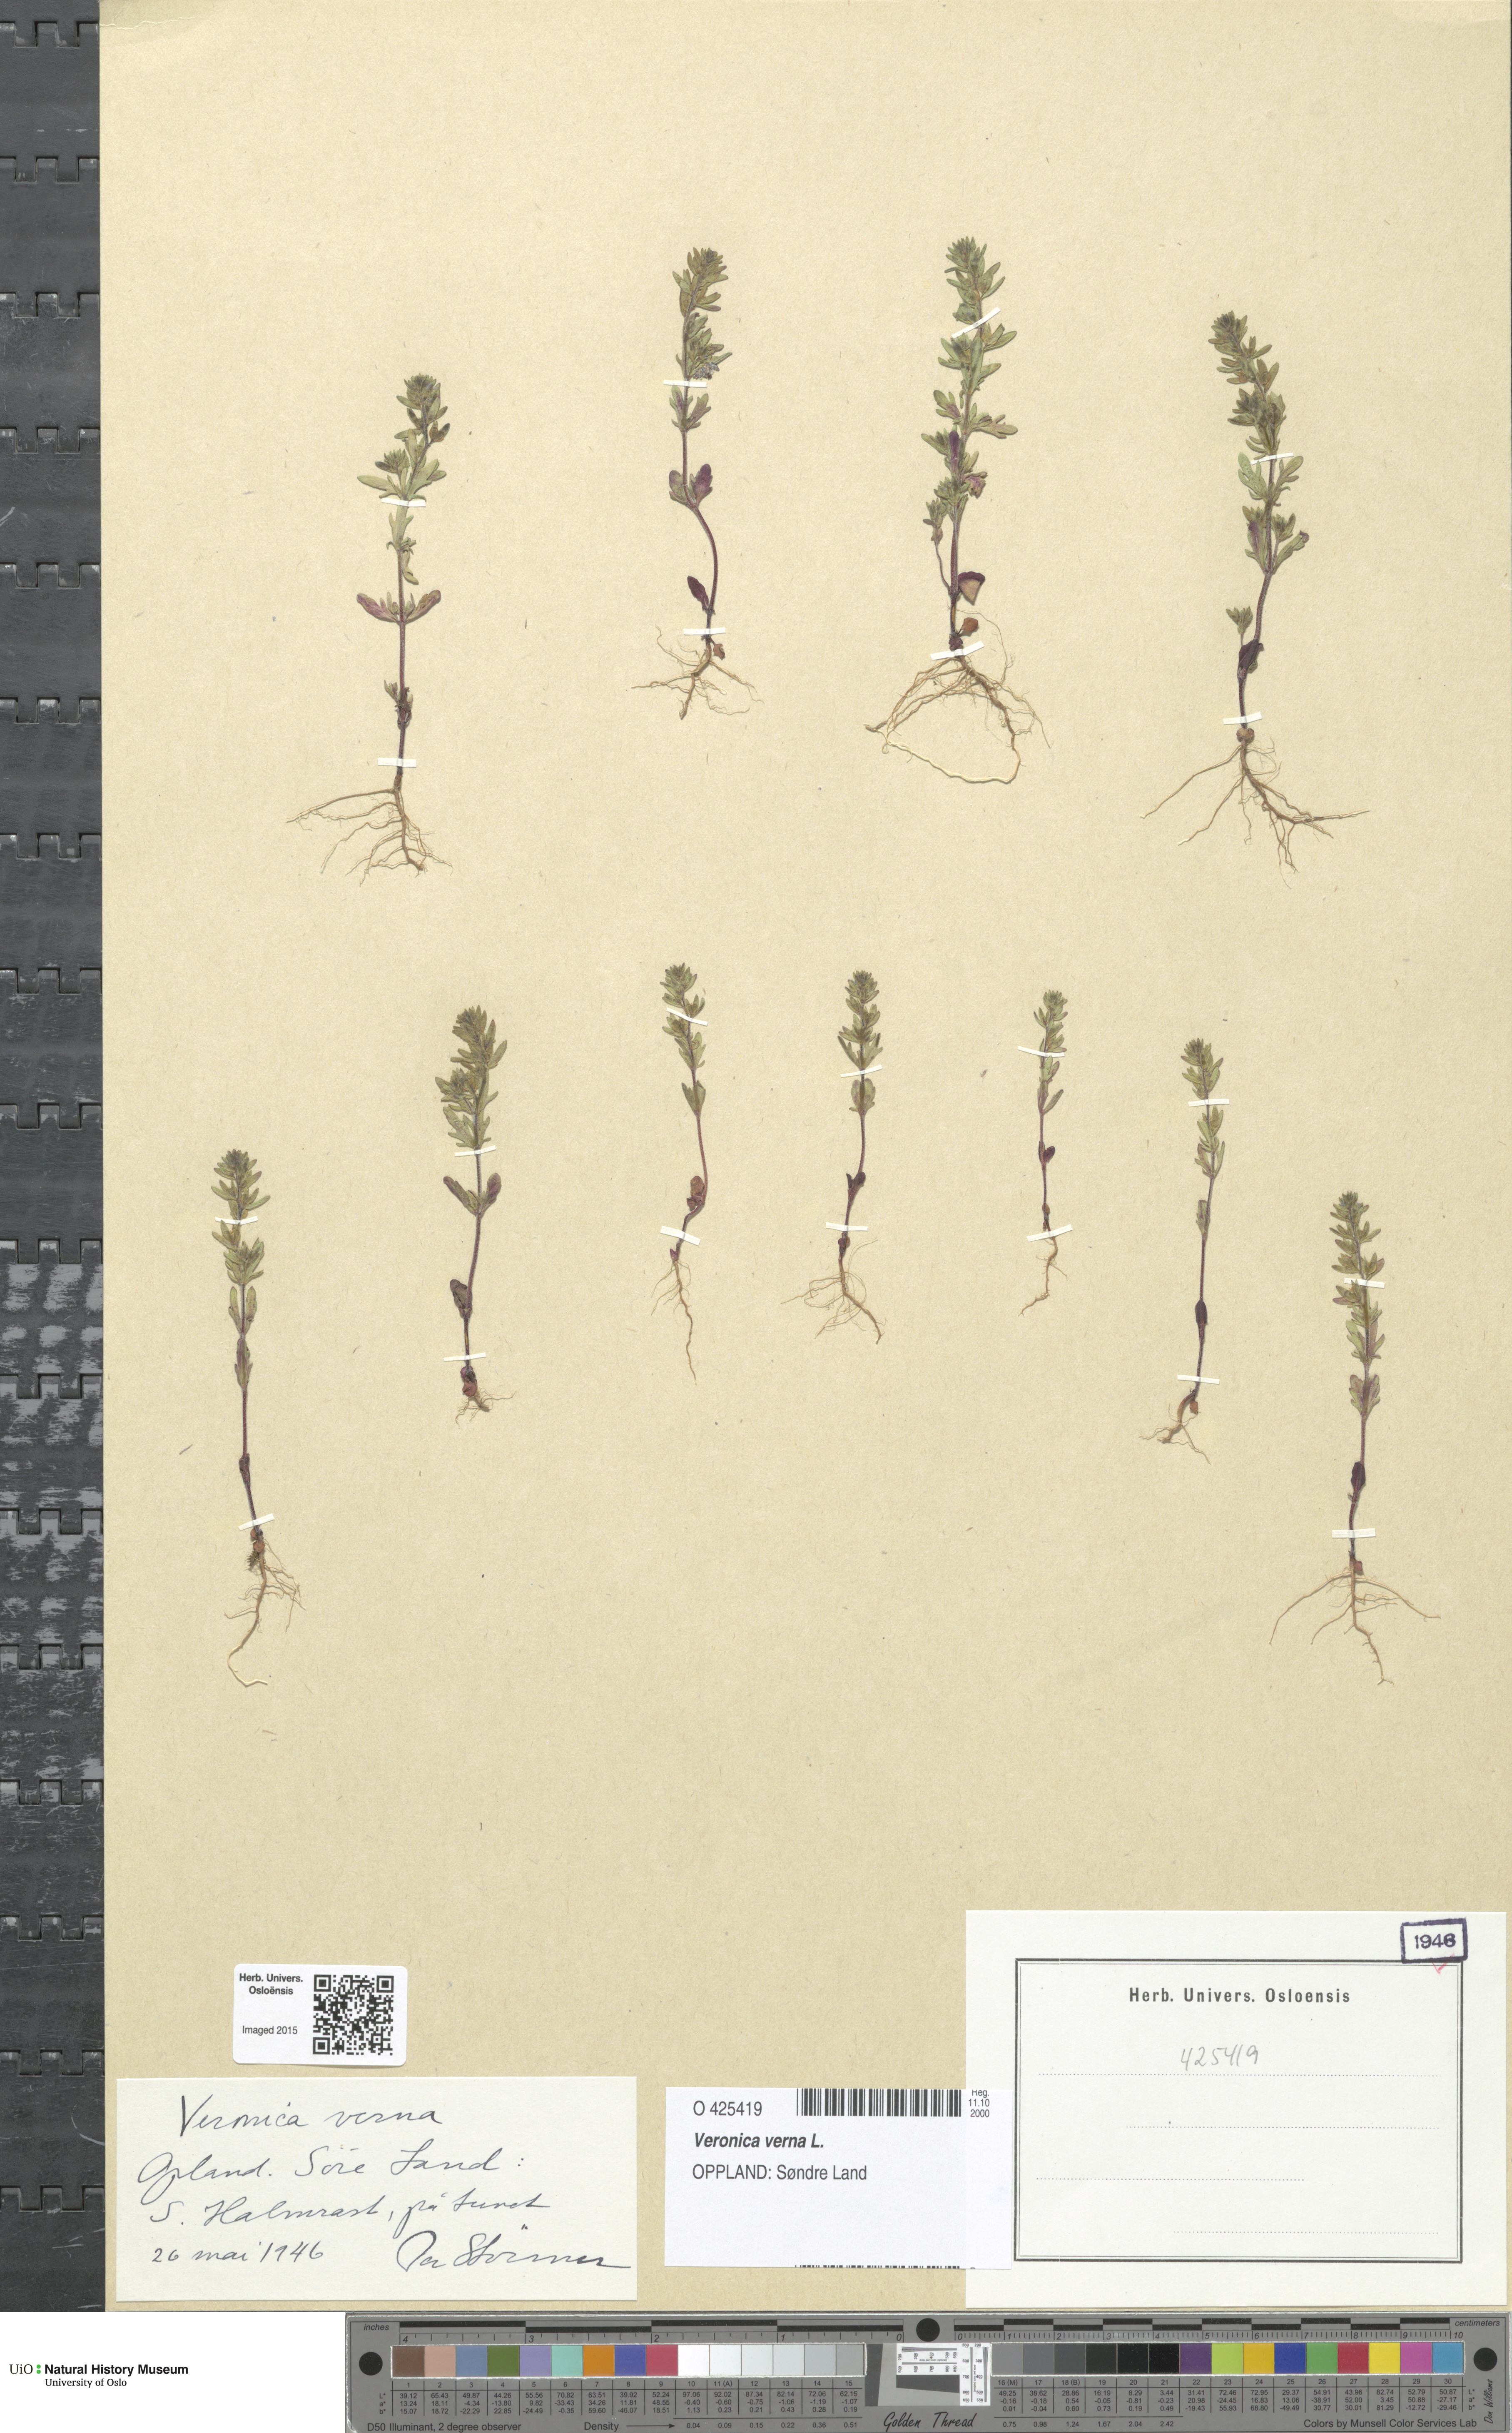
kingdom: Plantae
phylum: Tracheophyta
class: Magnoliopsida
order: Lamiales
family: Plantaginaceae
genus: Veronica
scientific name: Veronica verna
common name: Spring speedwell
